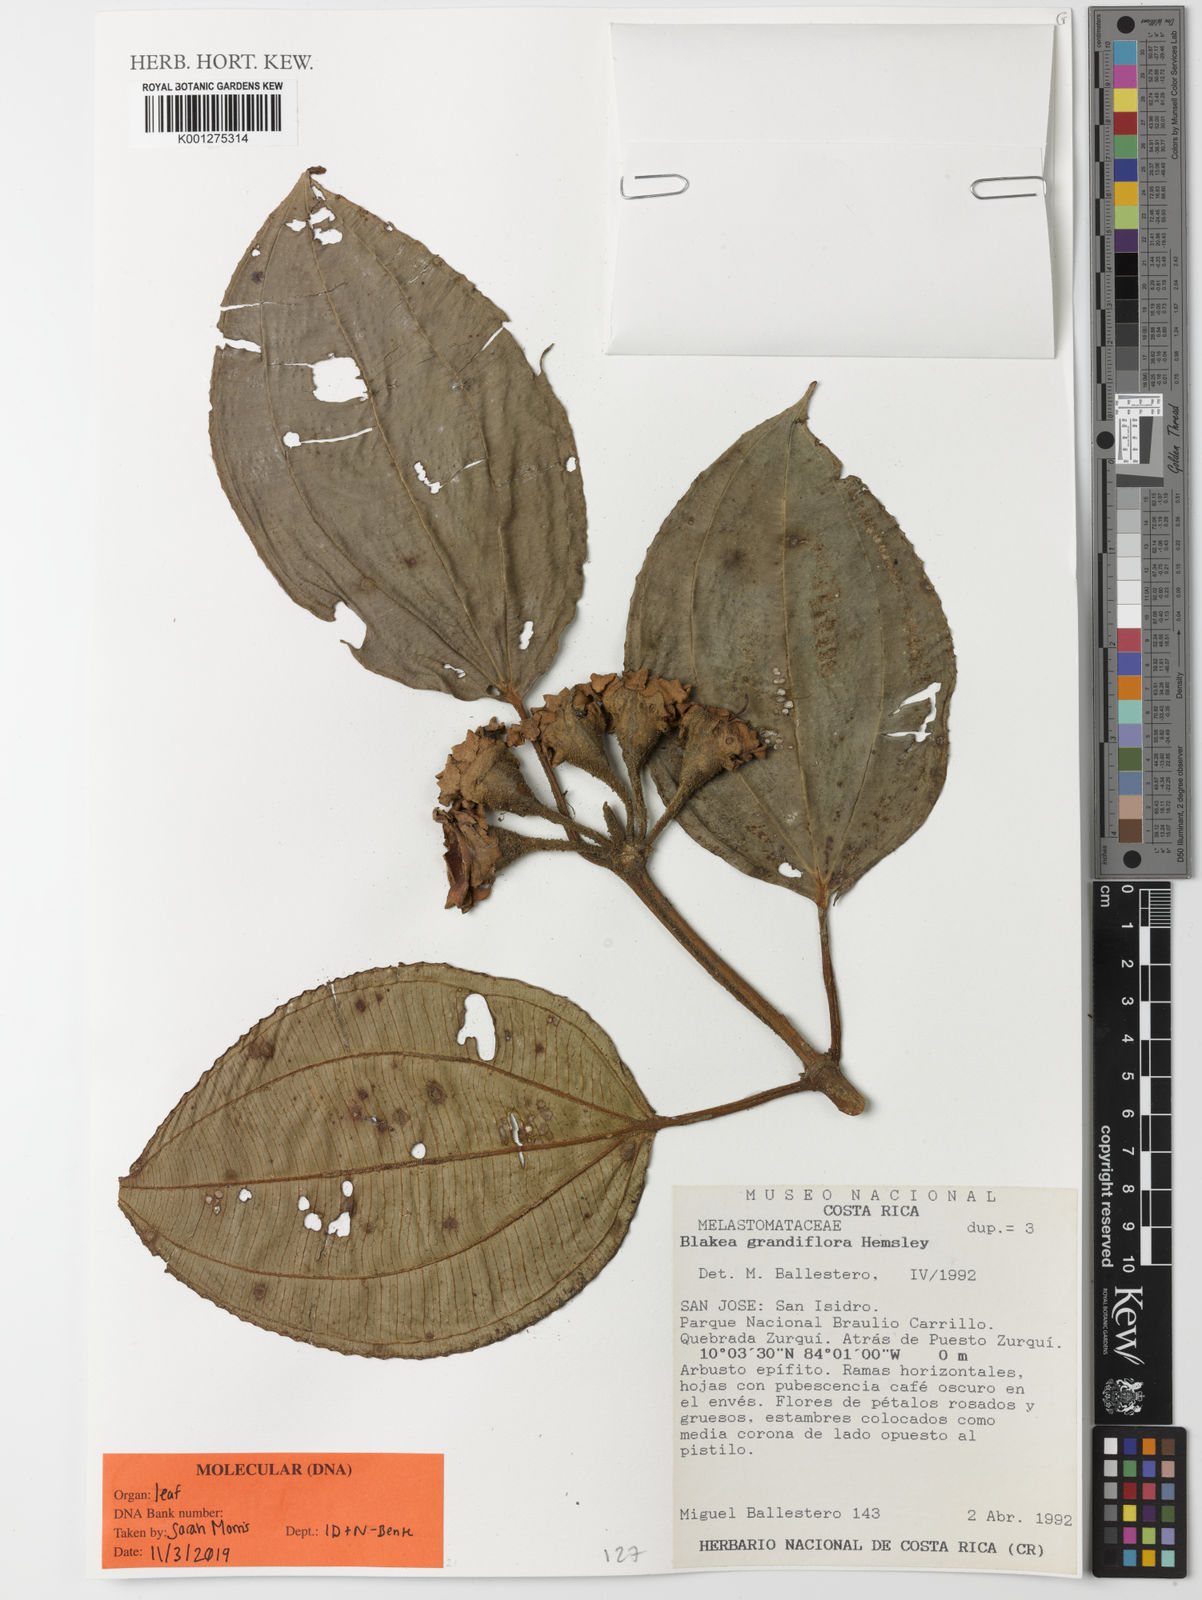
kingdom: Plantae
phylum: Tracheophyta
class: Magnoliopsida
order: Myrtales
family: Melastomataceae
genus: Blakea
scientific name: Blakea grandiflora
